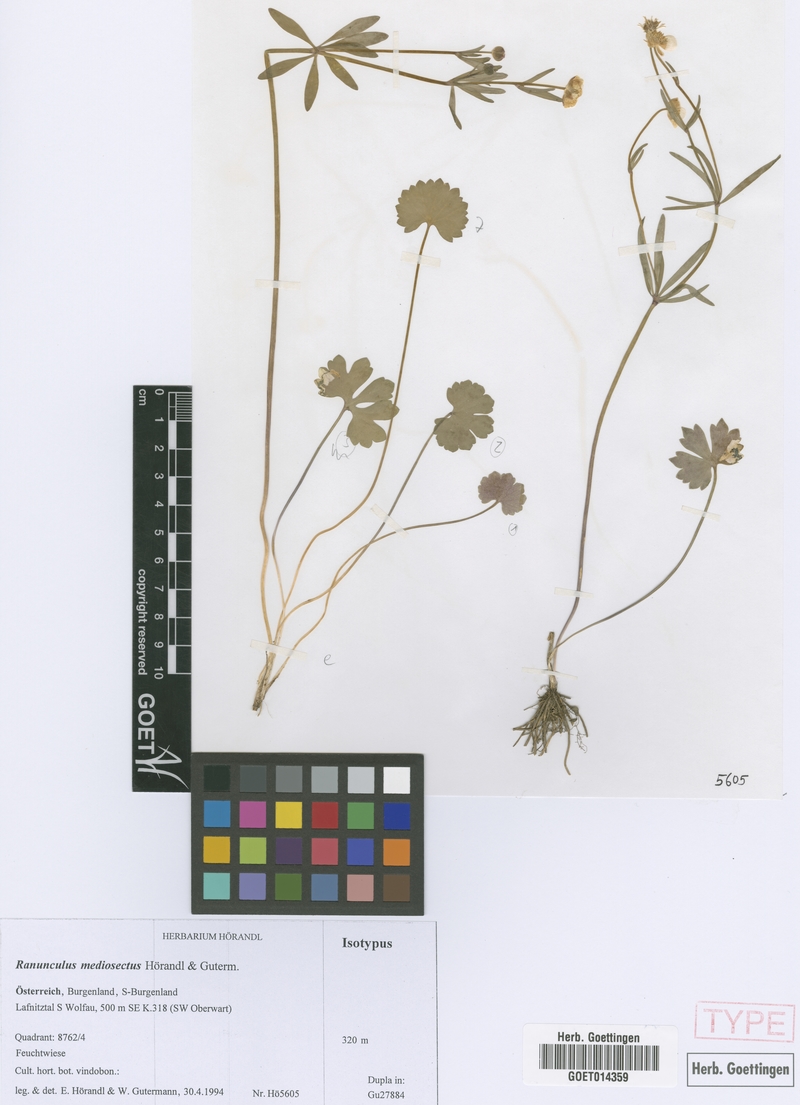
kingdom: Plantae
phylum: Tracheophyta
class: Magnoliopsida
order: Ranunculales
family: Ranunculaceae
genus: Ranunculus
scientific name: Ranunculus mediosectus
